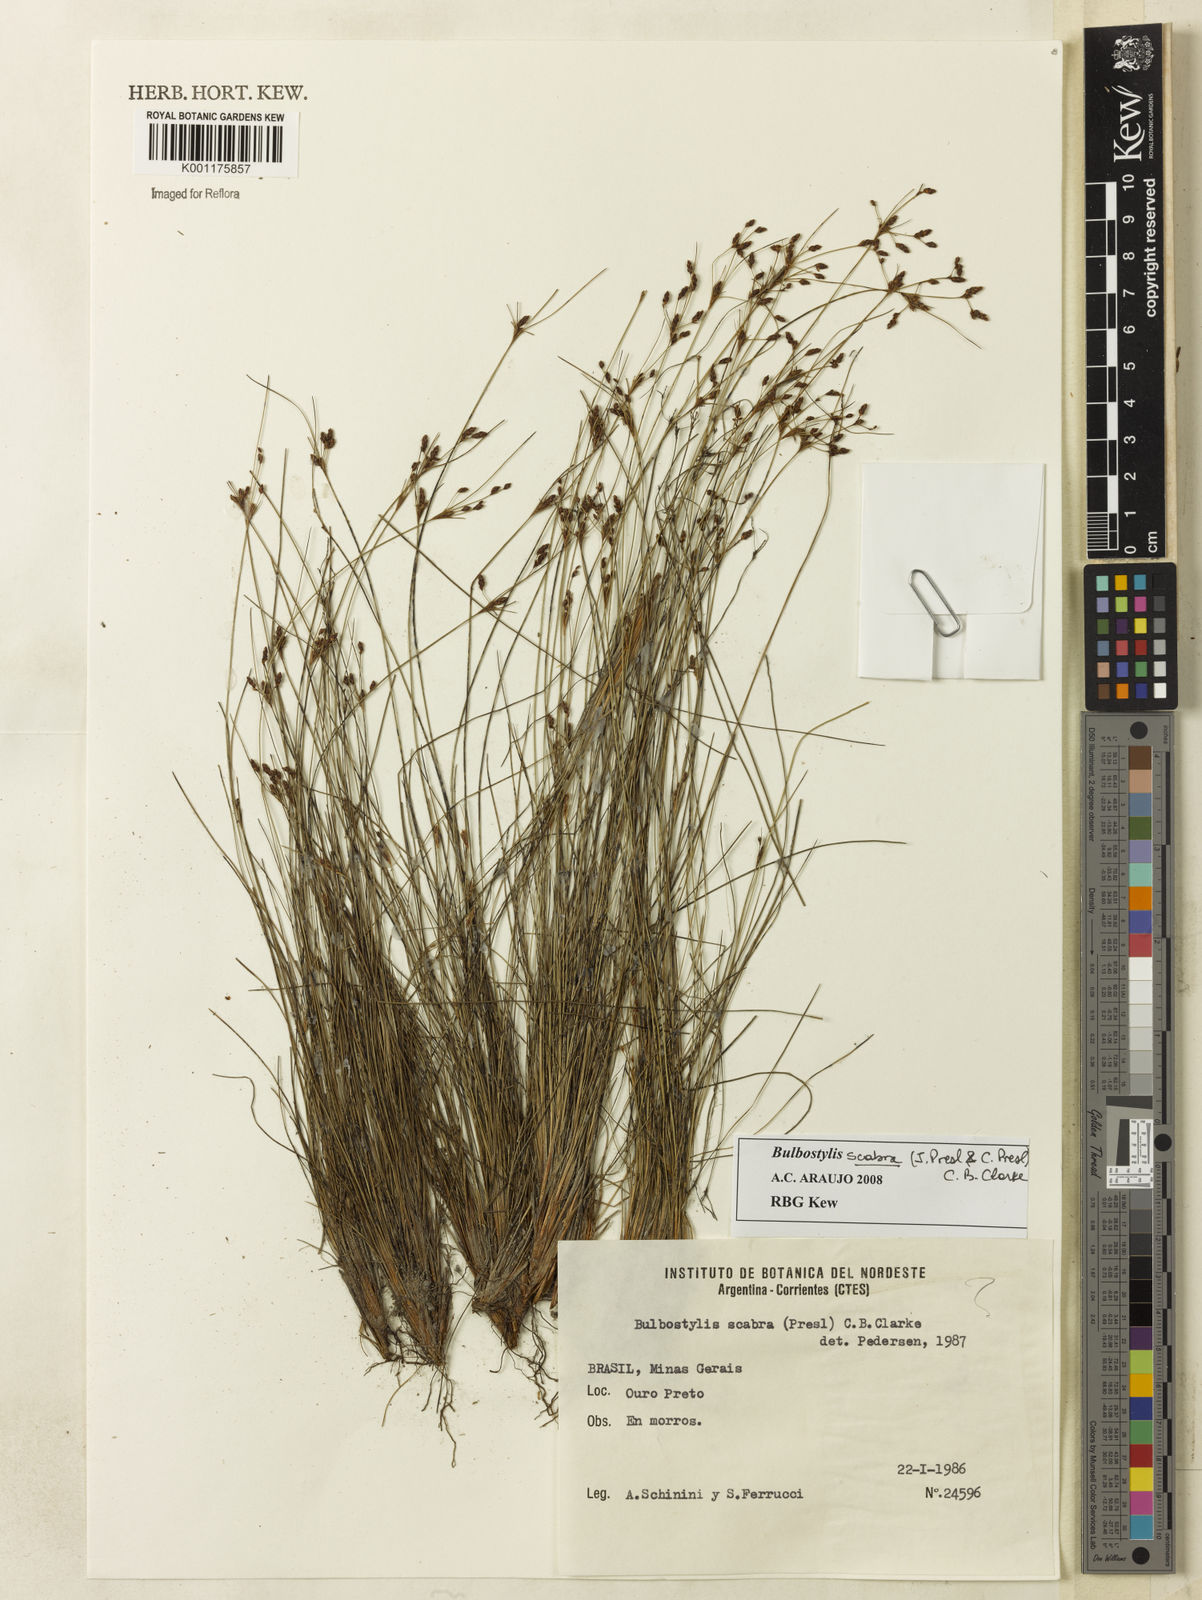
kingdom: Plantae
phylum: Tracheophyta
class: Liliopsida
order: Poales
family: Cyperaceae
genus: Bulbostylis
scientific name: Bulbostylis scabra
